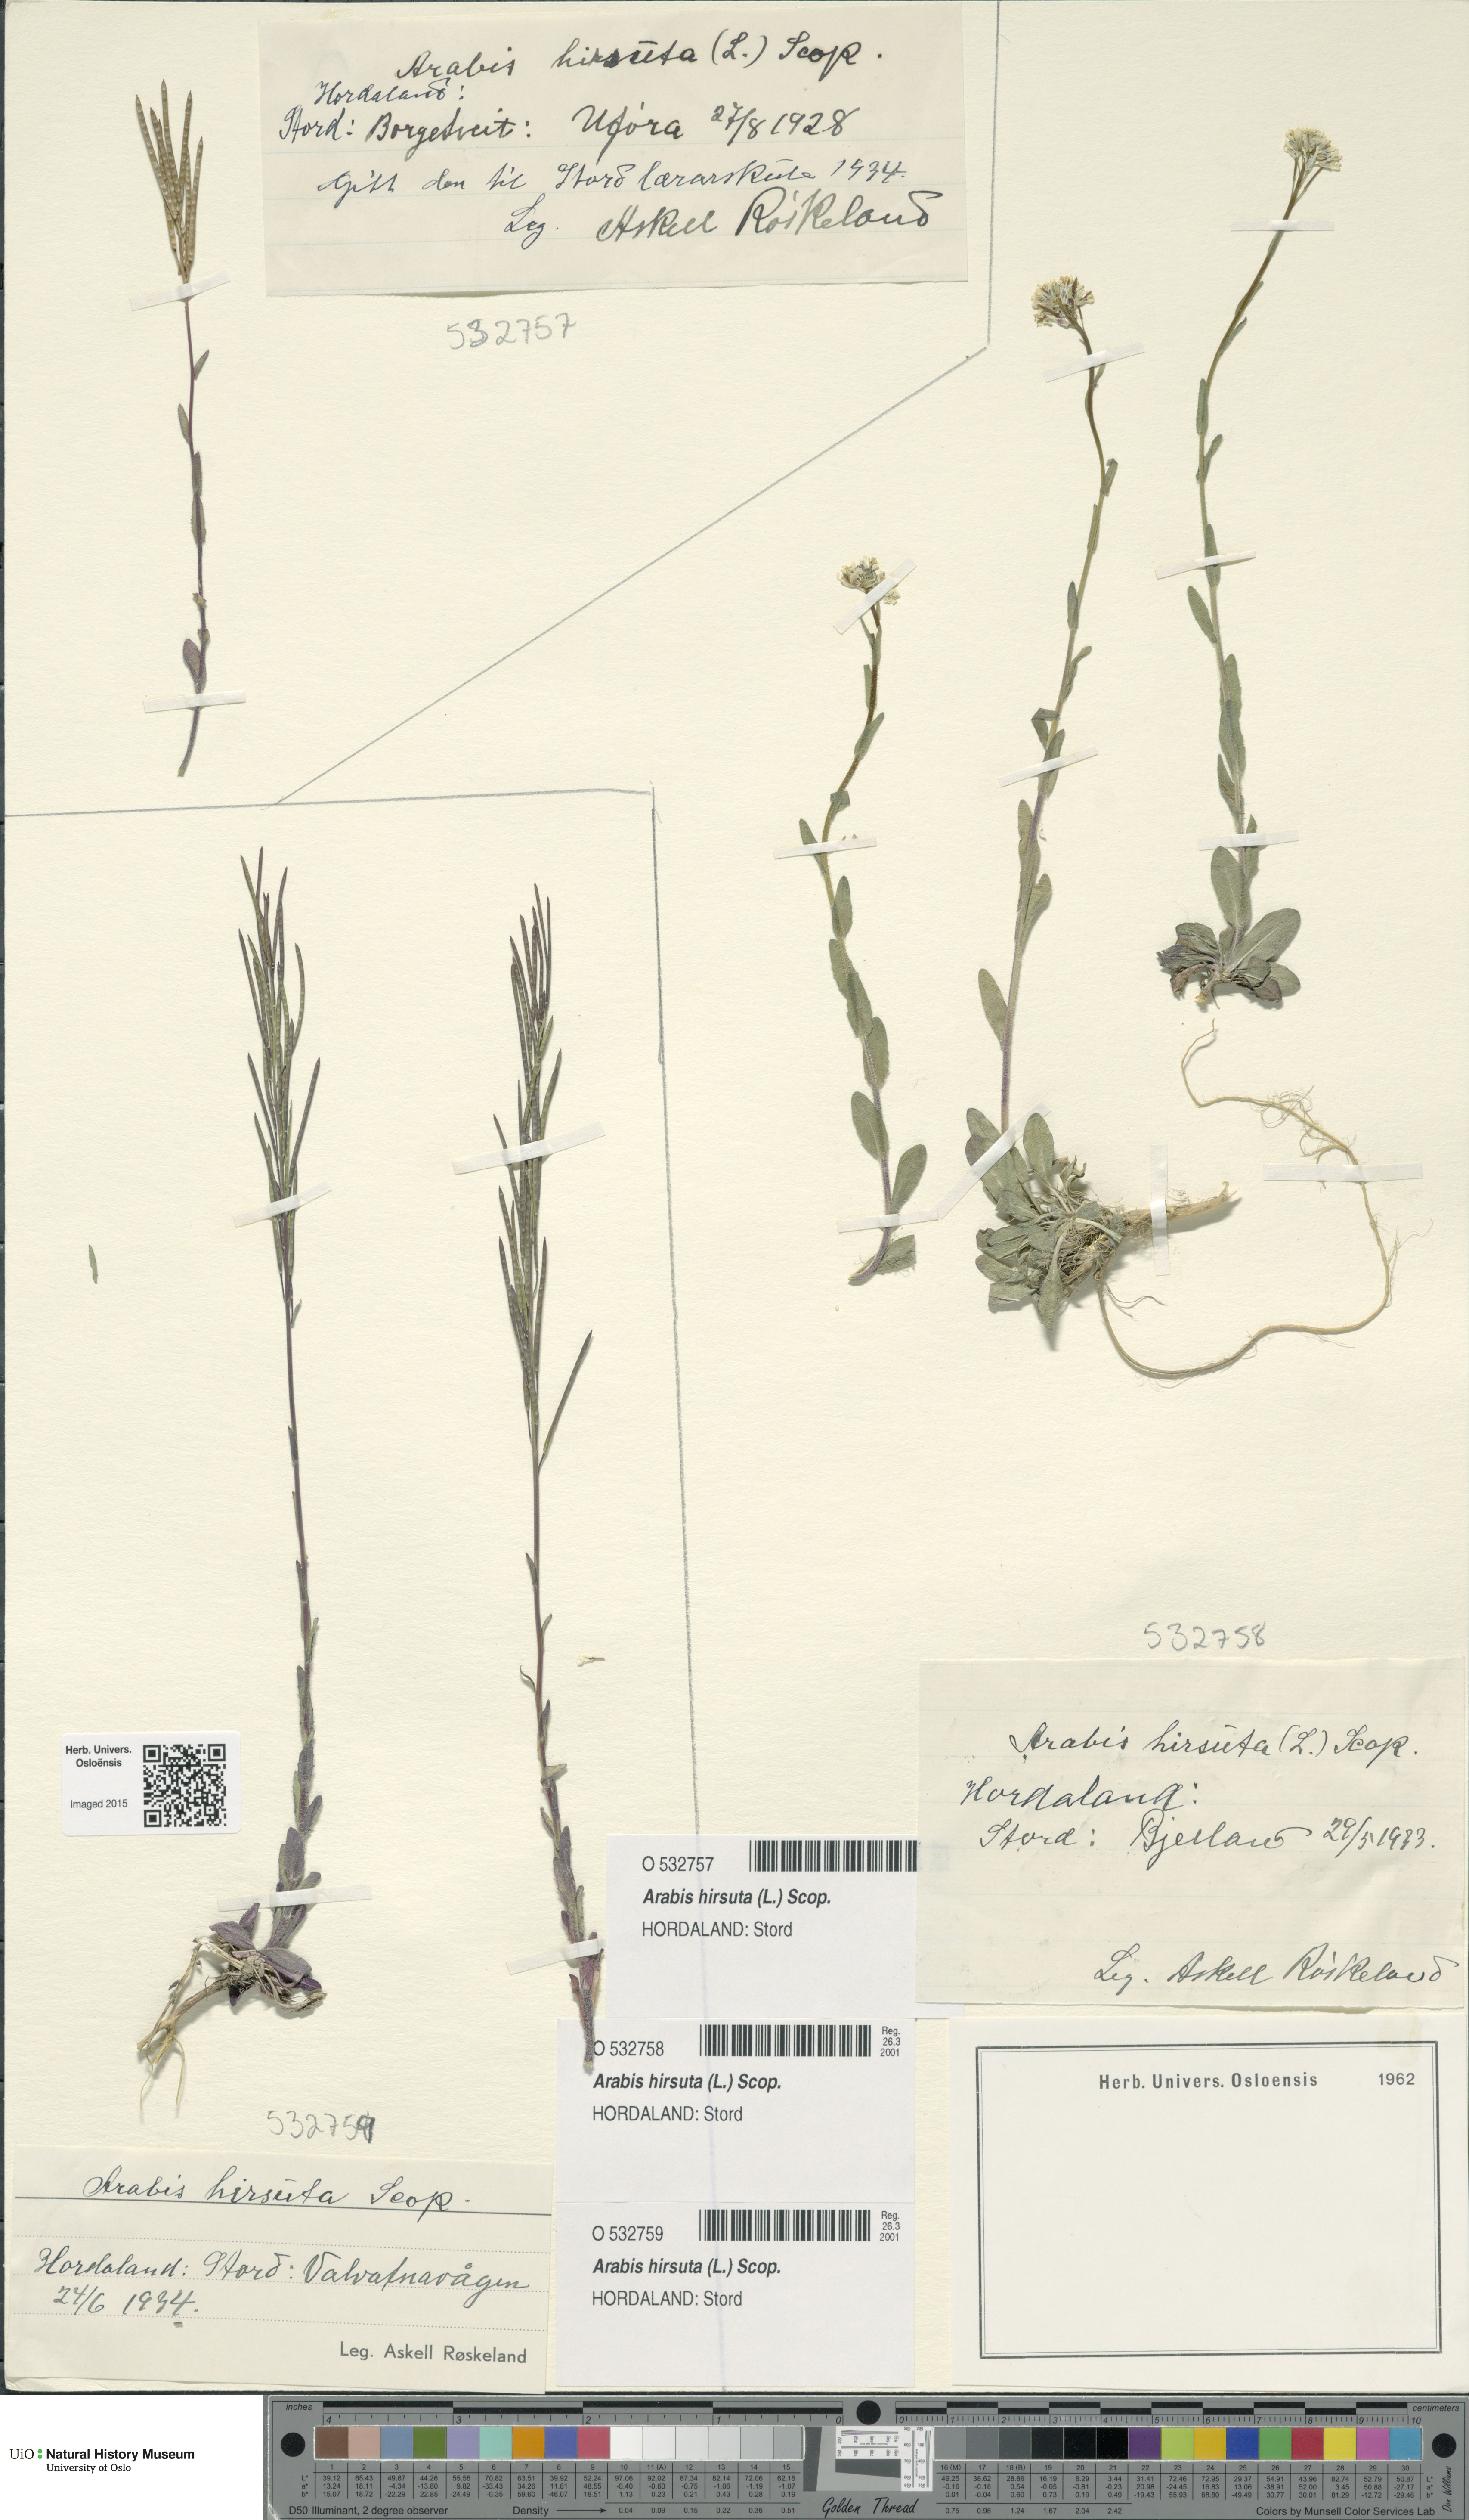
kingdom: Plantae
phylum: Tracheophyta
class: Magnoliopsida
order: Brassicales
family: Brassicaceae
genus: Arabis
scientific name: Arabis hirsuta
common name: Hairy rock-cress
